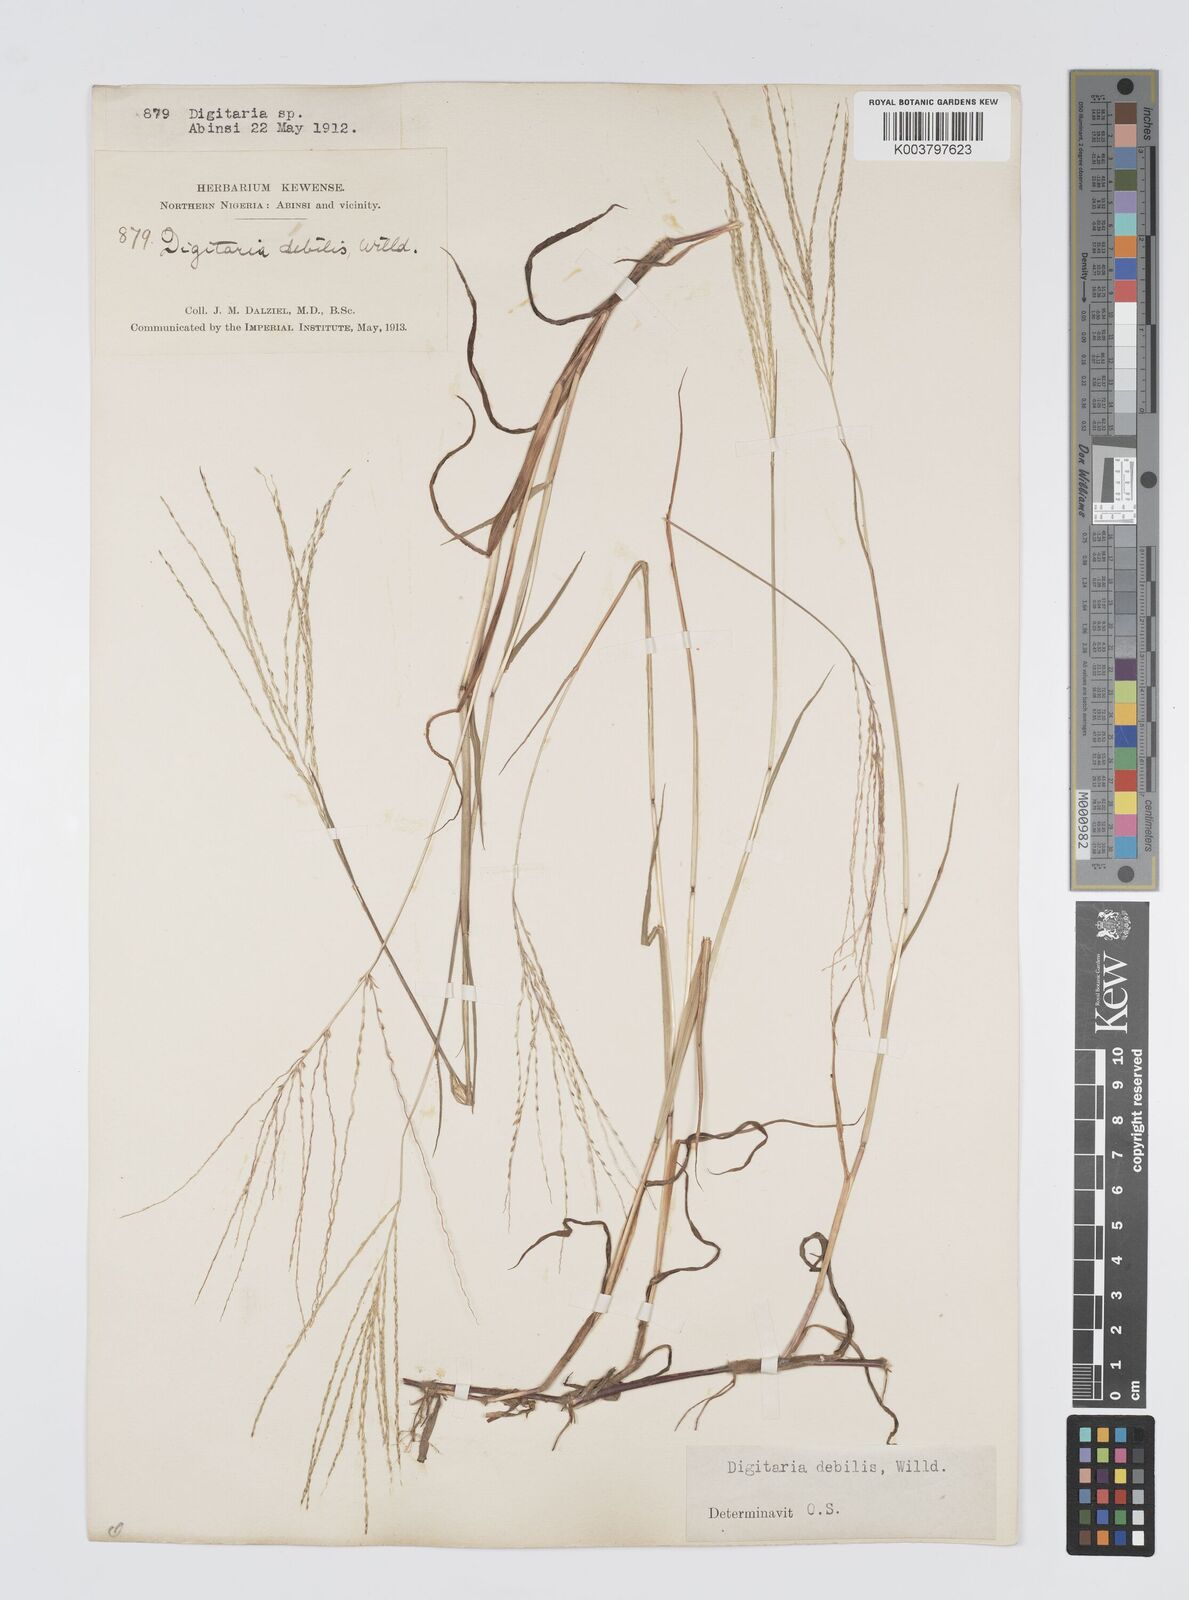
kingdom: Plantae
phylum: Tracheophyta
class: Liliopsida
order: Poales
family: Poaceae
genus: Digitaria
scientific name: Digitaria debilis
